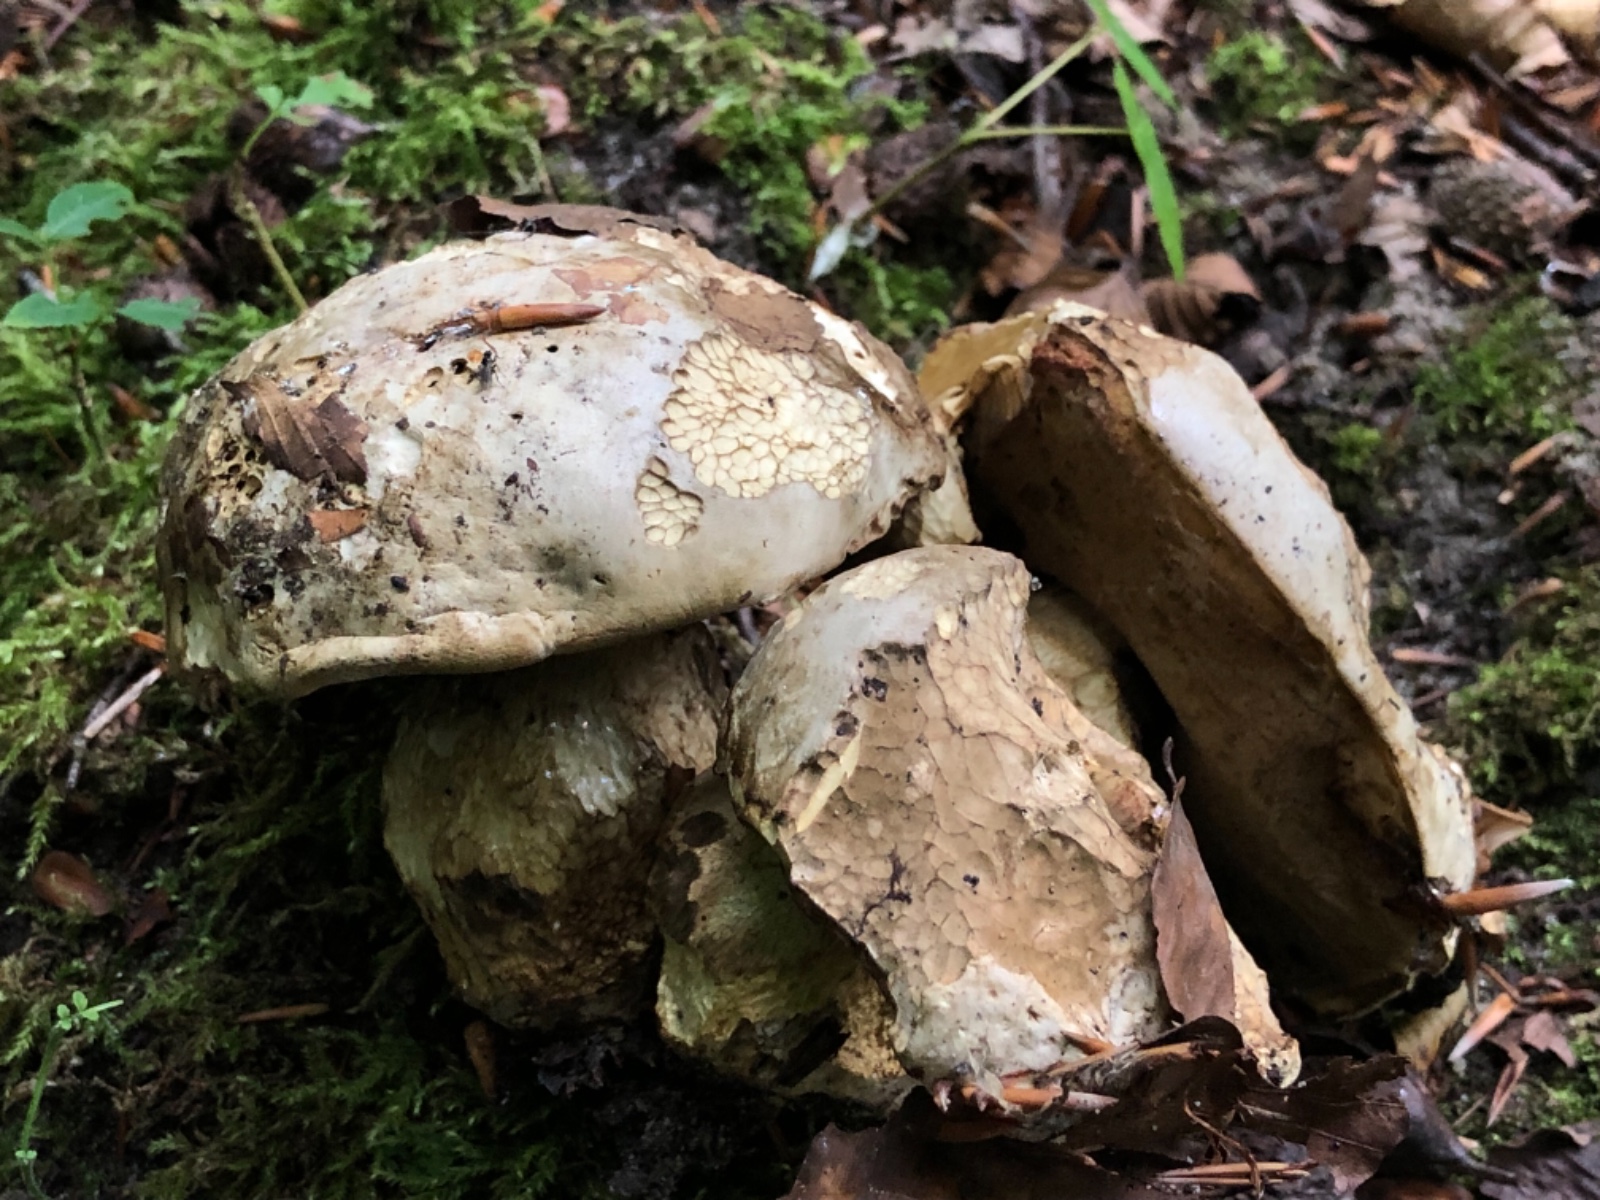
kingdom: Fungi
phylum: Basidiomycota
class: Agaricomycetes
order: Boletales
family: Boletaceae
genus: Rubroboletus
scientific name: Rubroboletus satanas
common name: Satans rørhat
